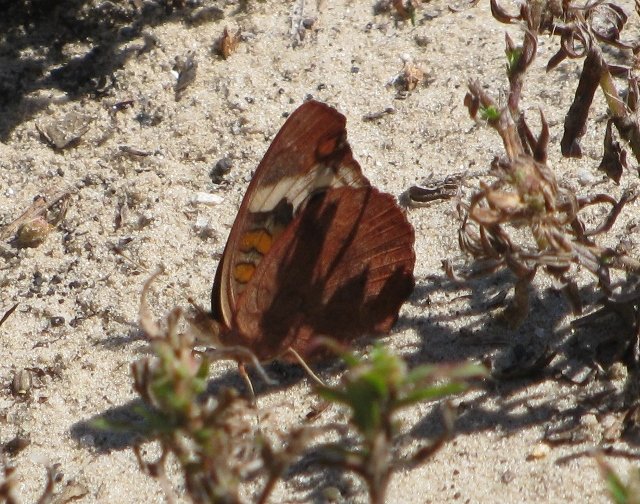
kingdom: Animalia
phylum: Arthropoda
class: Insecta
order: Lepidoptera
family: Nymphalidae
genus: Junonia
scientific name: Junonia coenia
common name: Common Buckeye
